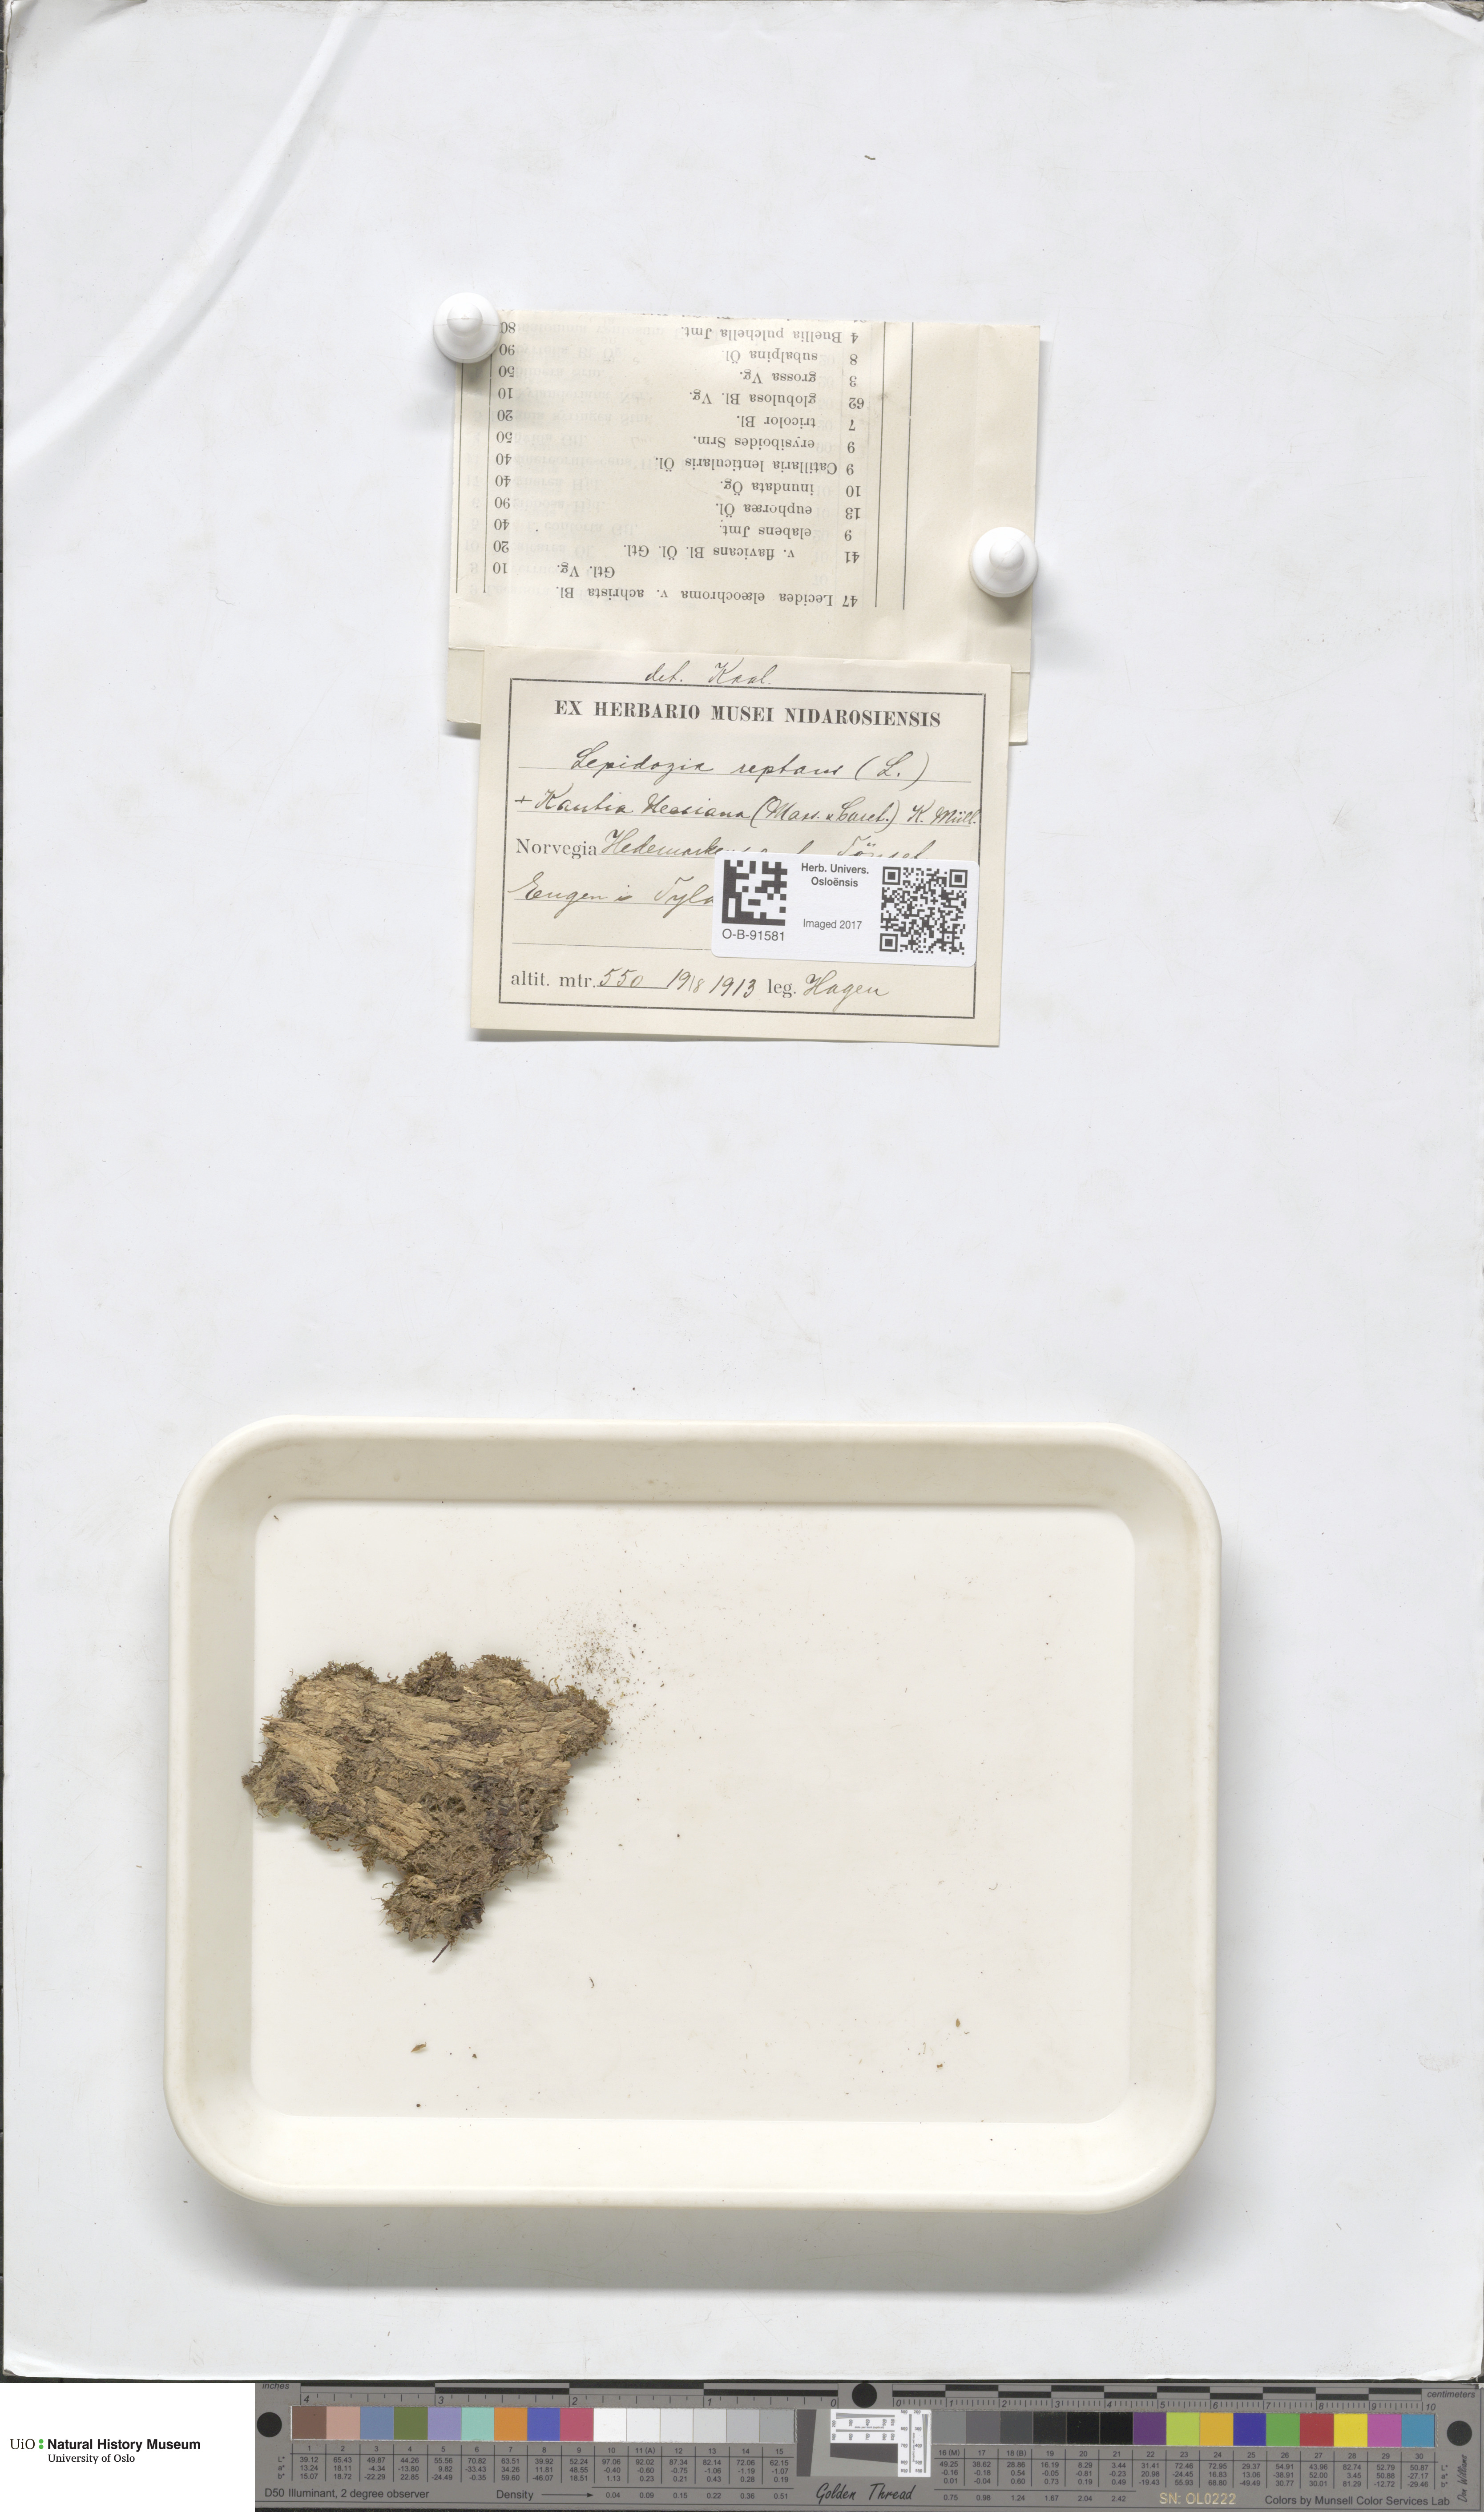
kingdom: Plantae
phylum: Marchantiophyta
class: Jungermanniopsida
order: Jungermanniales
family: Lepidoziaceae
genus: Lepidozia
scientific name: Lepidozia reptans
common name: Creeping fingerwort
